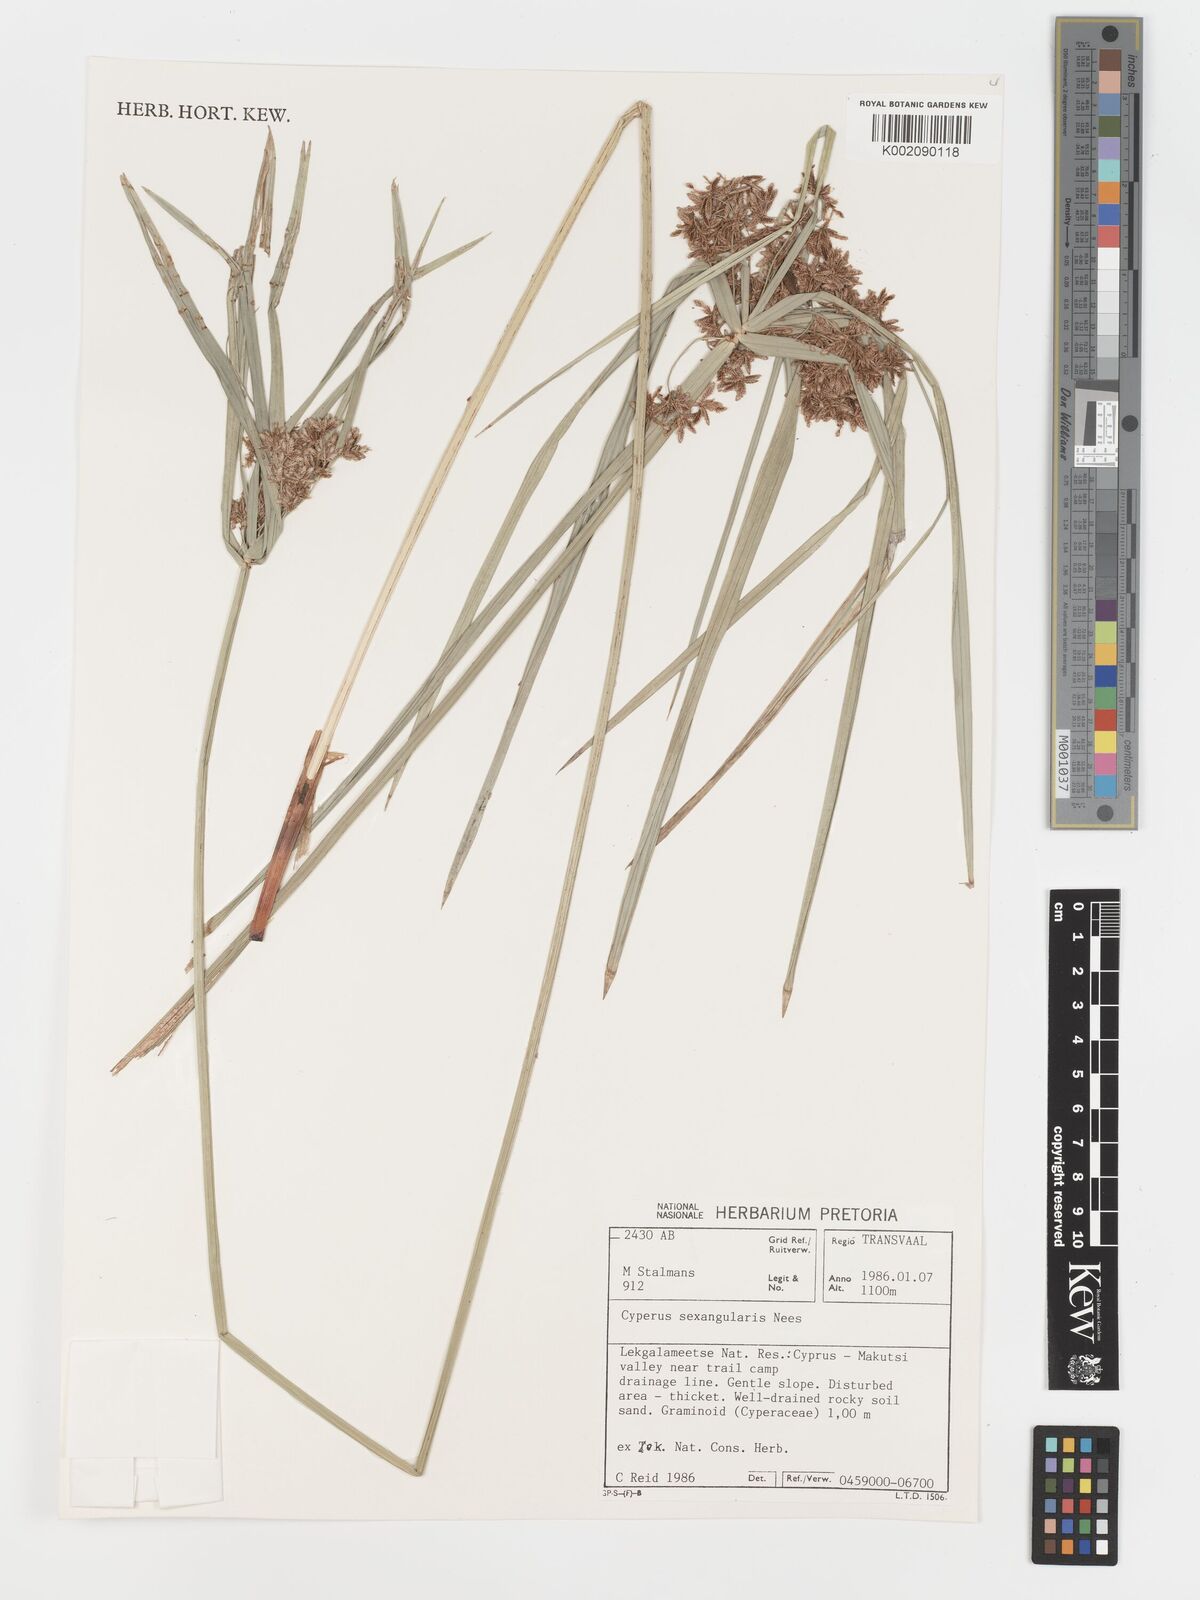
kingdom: Plantae
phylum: Tracheophyta
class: Liliopsida
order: Poales
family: Cyperaceae
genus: Cyperus
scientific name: Cyperus sexangularis
